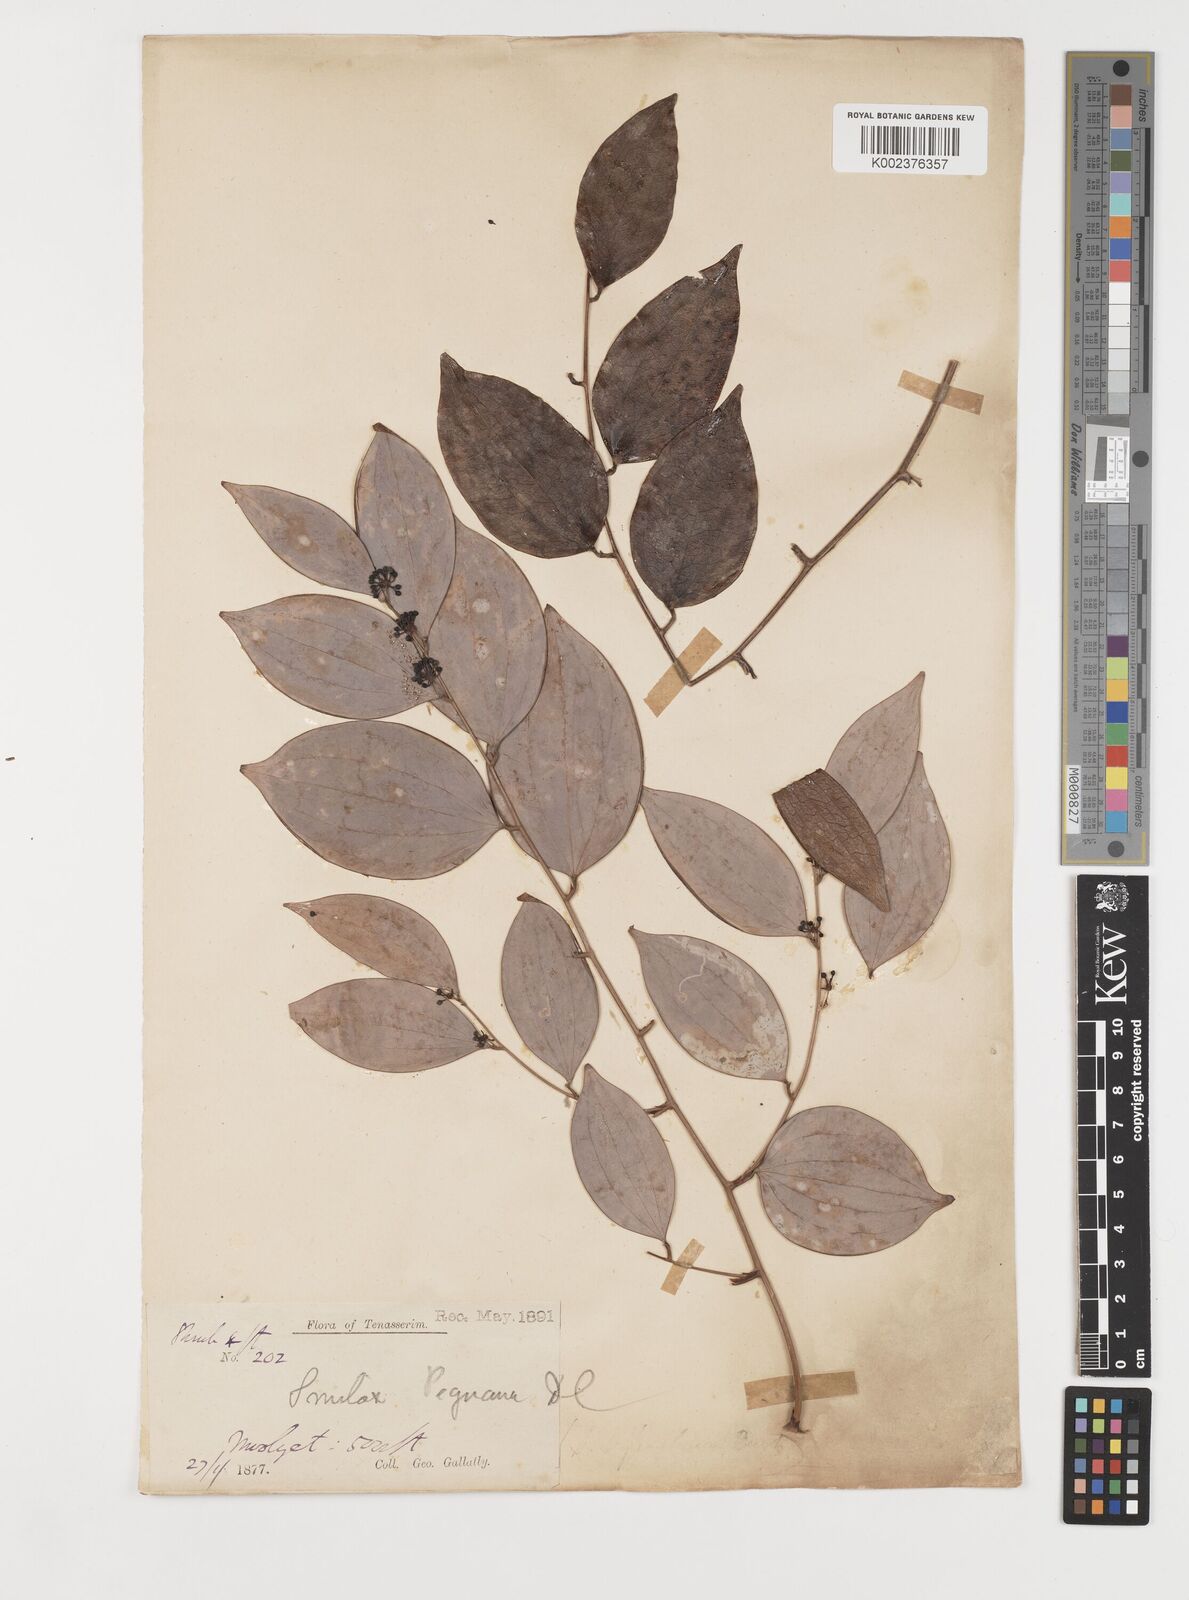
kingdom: Plantae
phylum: Tracheophyta
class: Liliopsida
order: Liliales
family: Smilacaceae
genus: Smilax
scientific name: Smilax corbularia
